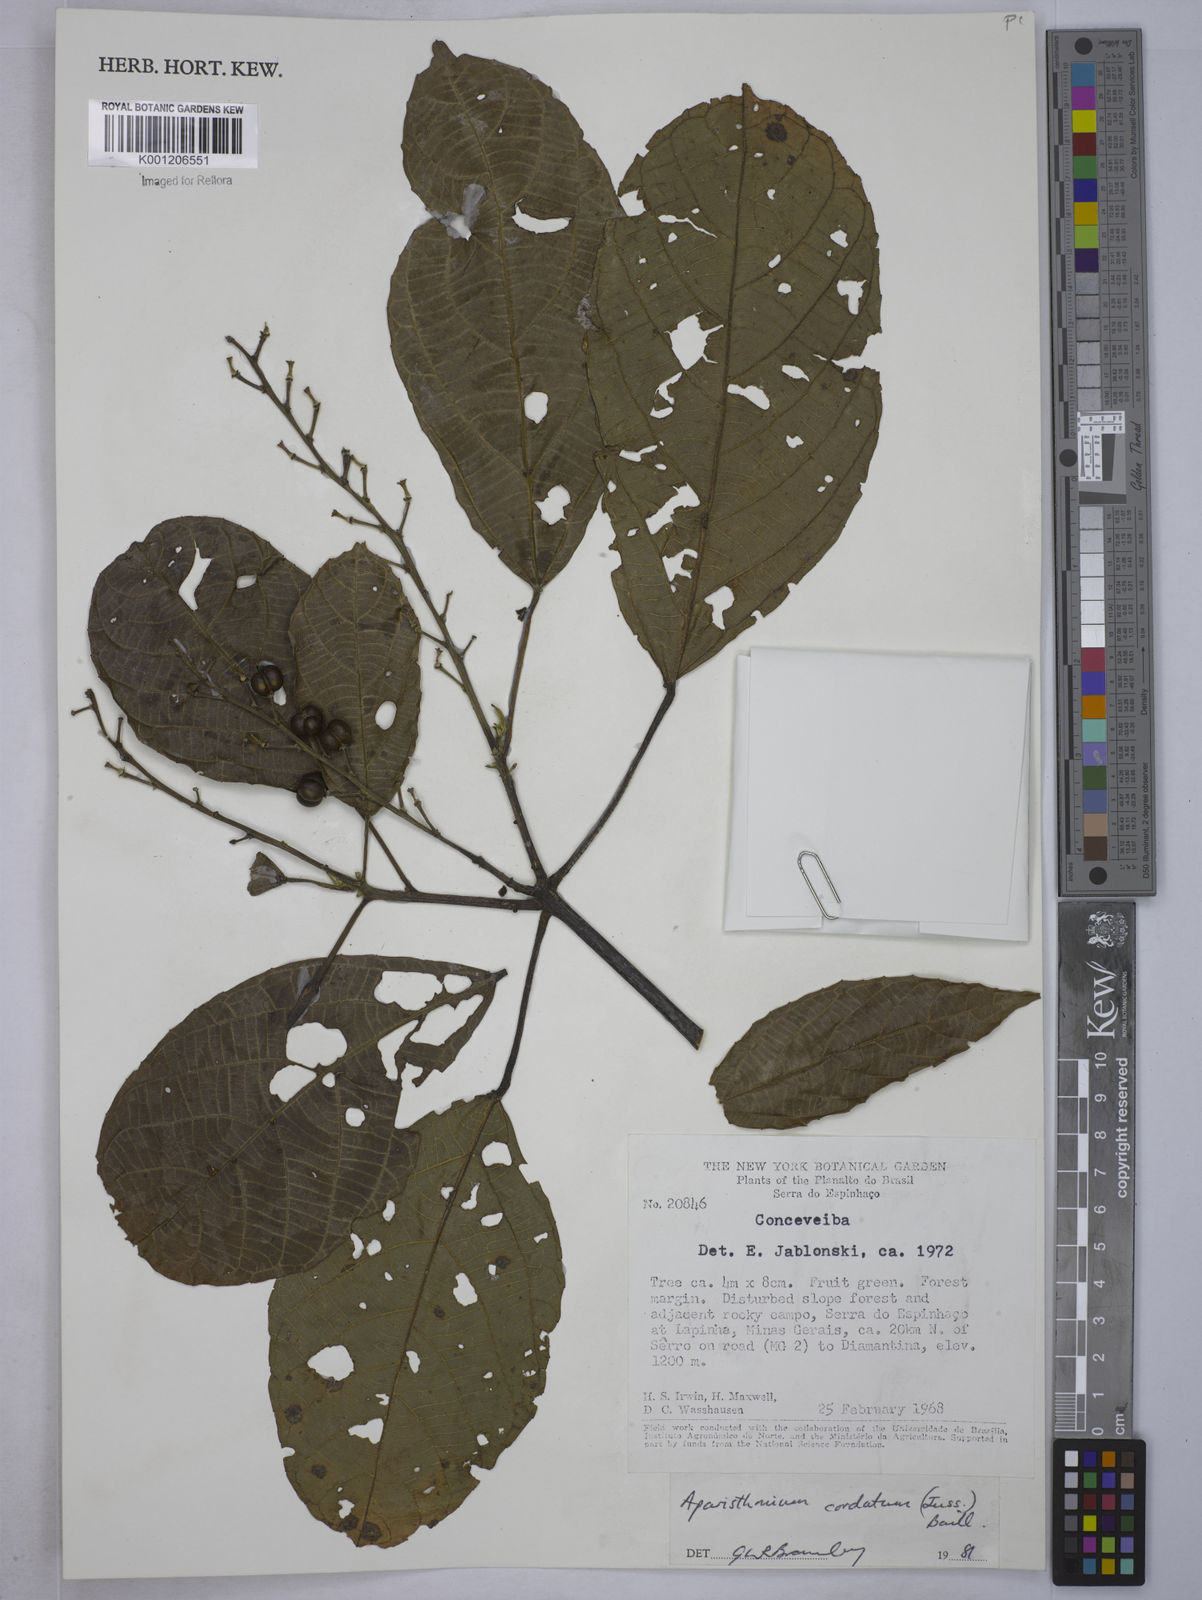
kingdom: Plantae
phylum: Tracheophyta
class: Magnoliopsida
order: Malpighiales
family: Euphorbiaceae
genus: Aparisthmium
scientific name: Aparisthmium cordatum
